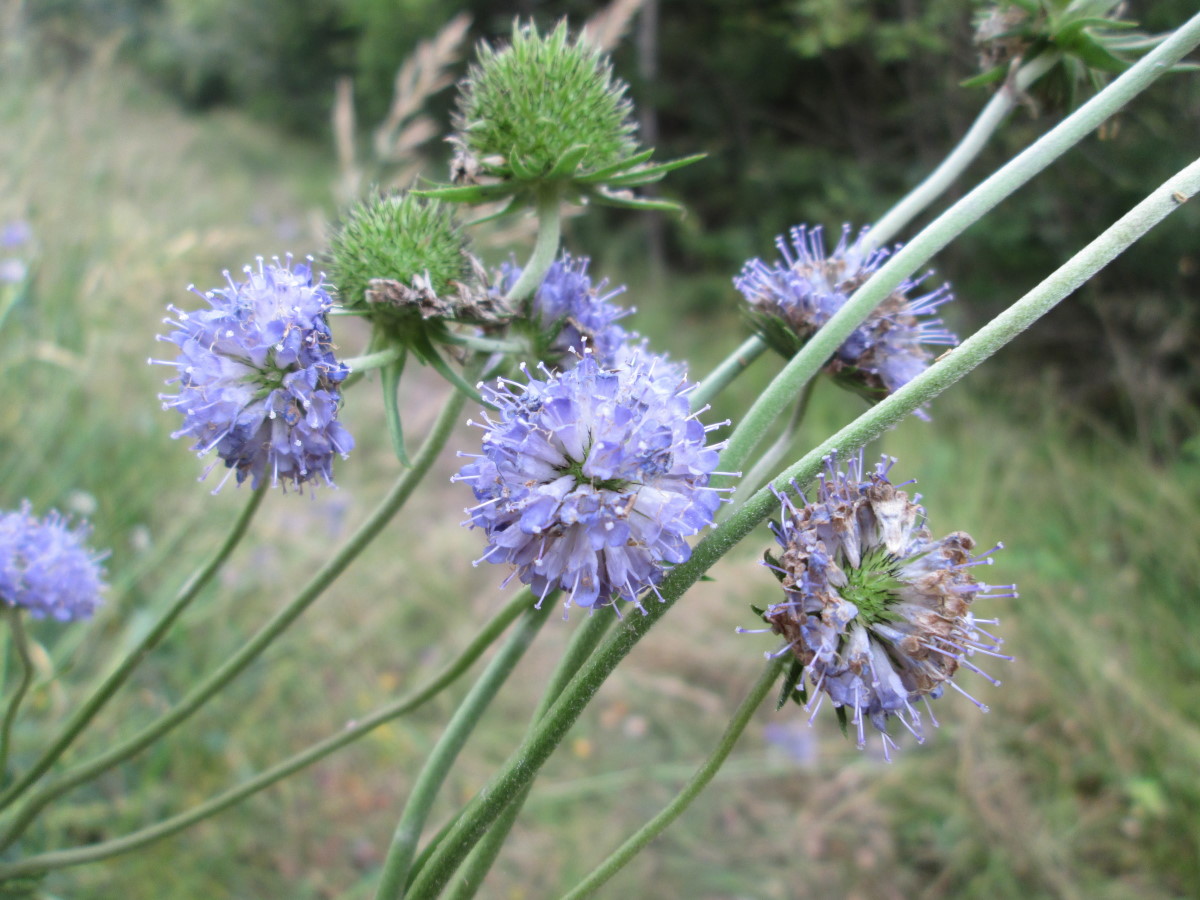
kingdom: Plantae
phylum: Tracheophyta
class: Magnoliopsida
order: Dipsacales
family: Caprifoliaceae
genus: Succisa
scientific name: Succisa pratensis
